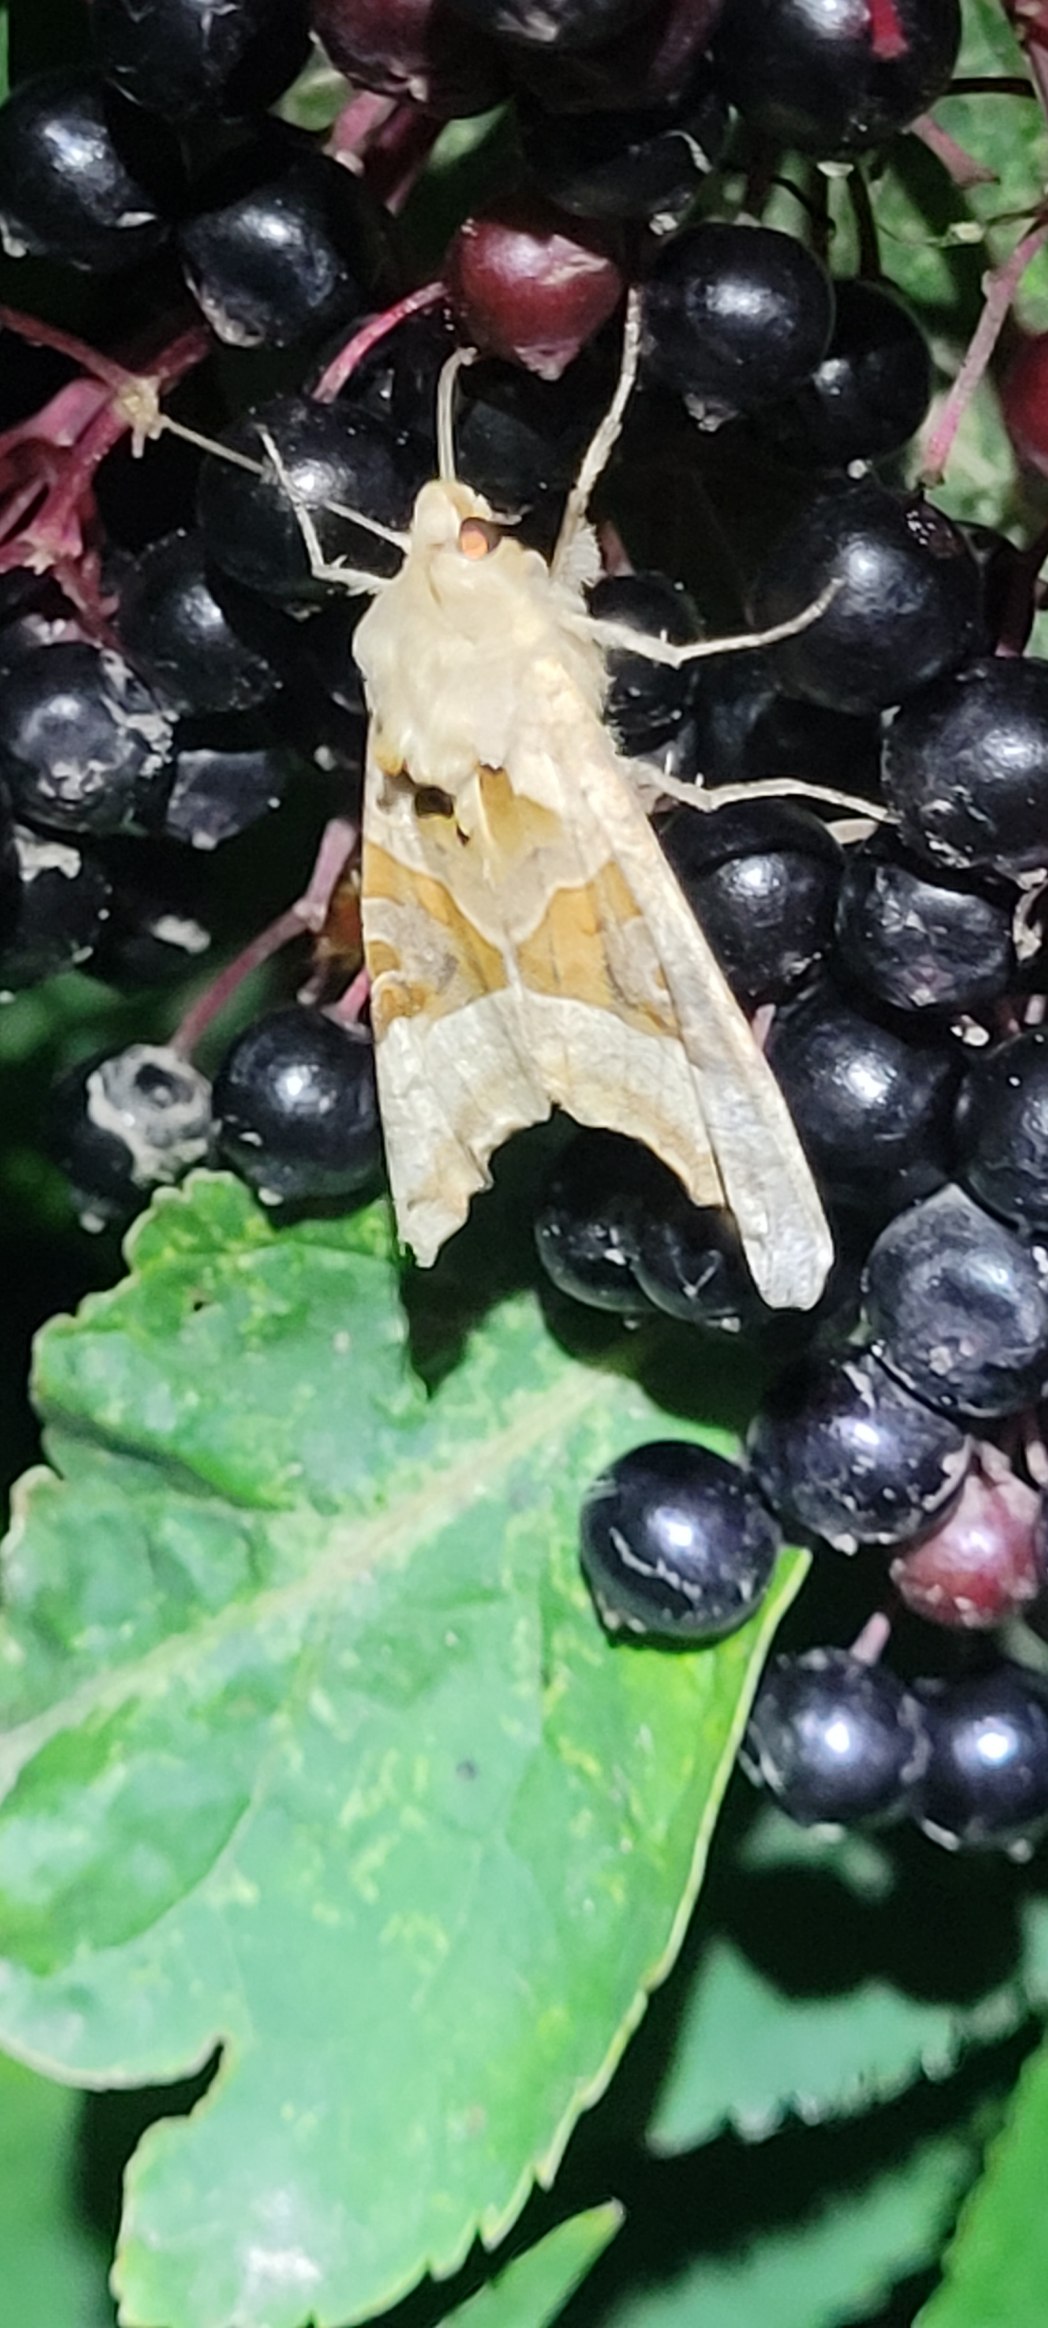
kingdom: Animalia
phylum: Arthropoda
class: Insecta
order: Lepidoptera
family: Noctuidae
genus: Phlogophora
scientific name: Phlogophora meticulosa
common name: Agatugle
